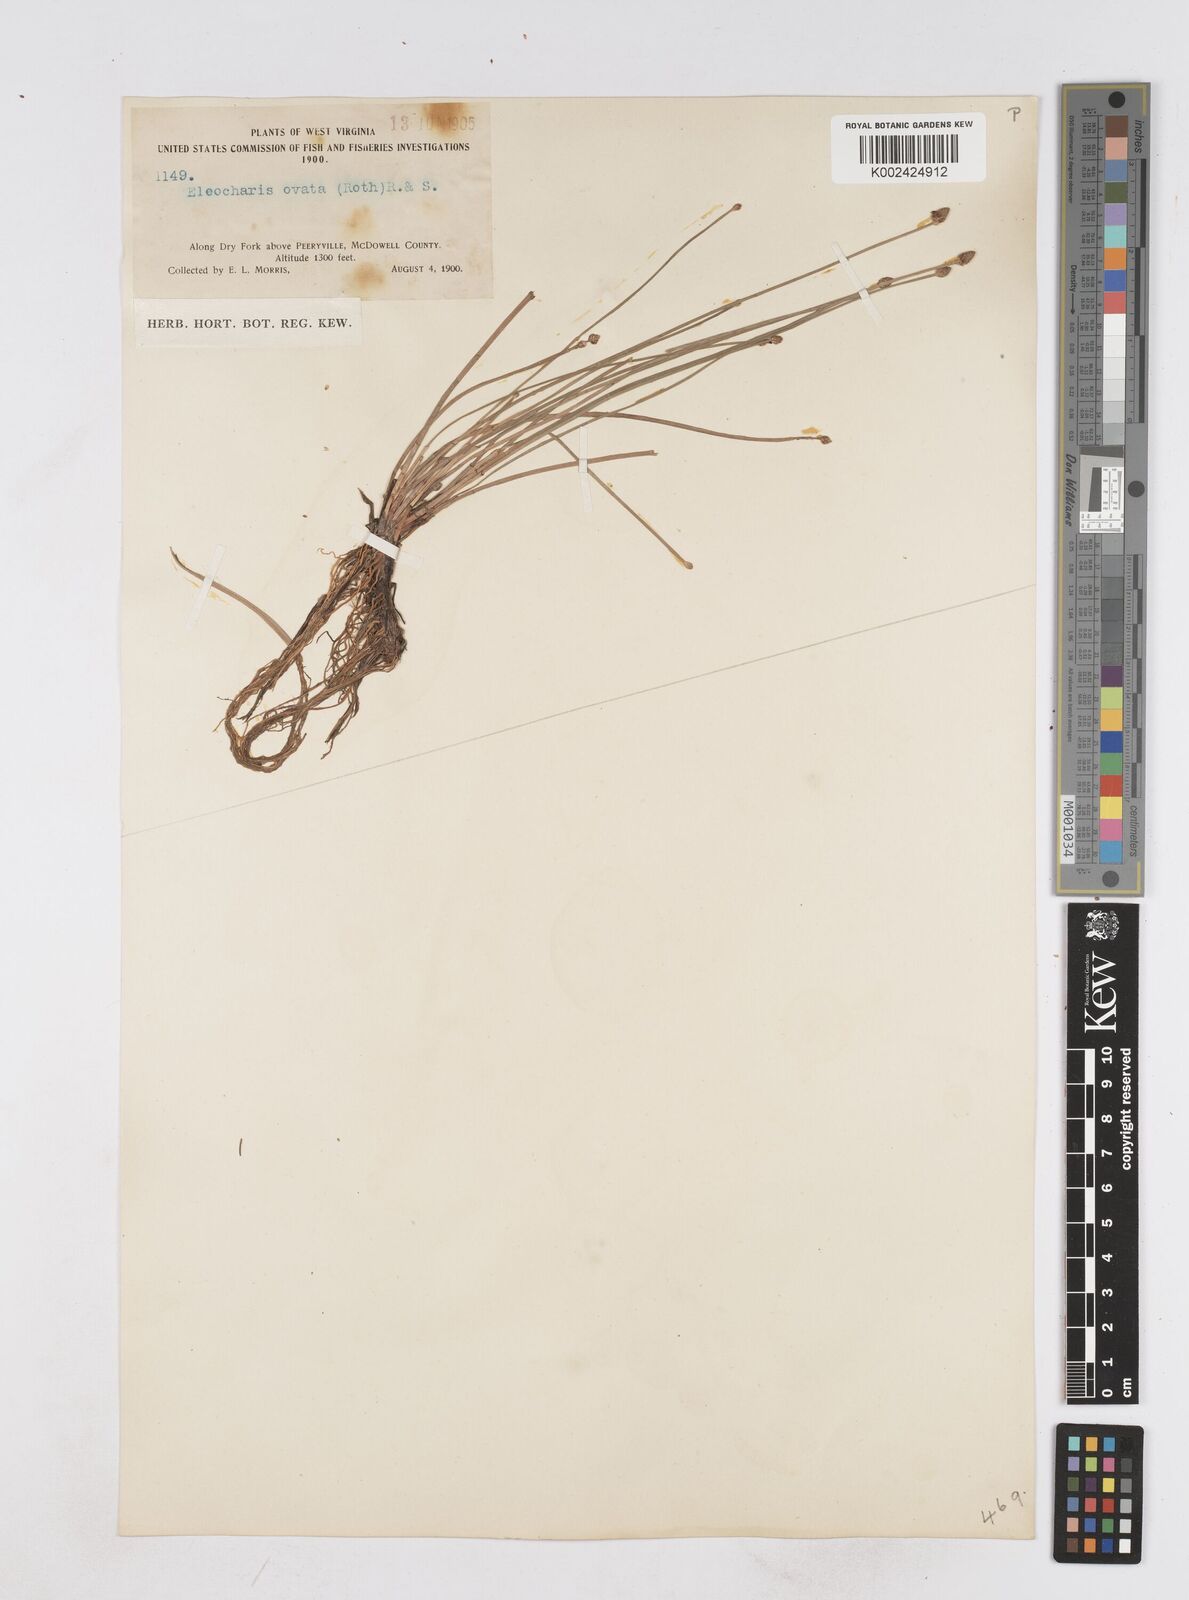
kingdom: Plantae
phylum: Tracheophyta
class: Liliopsida
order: Poales
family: Cyperaceae
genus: Eleocharis
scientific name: Eleocharis ovata
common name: Oval spike-rush
